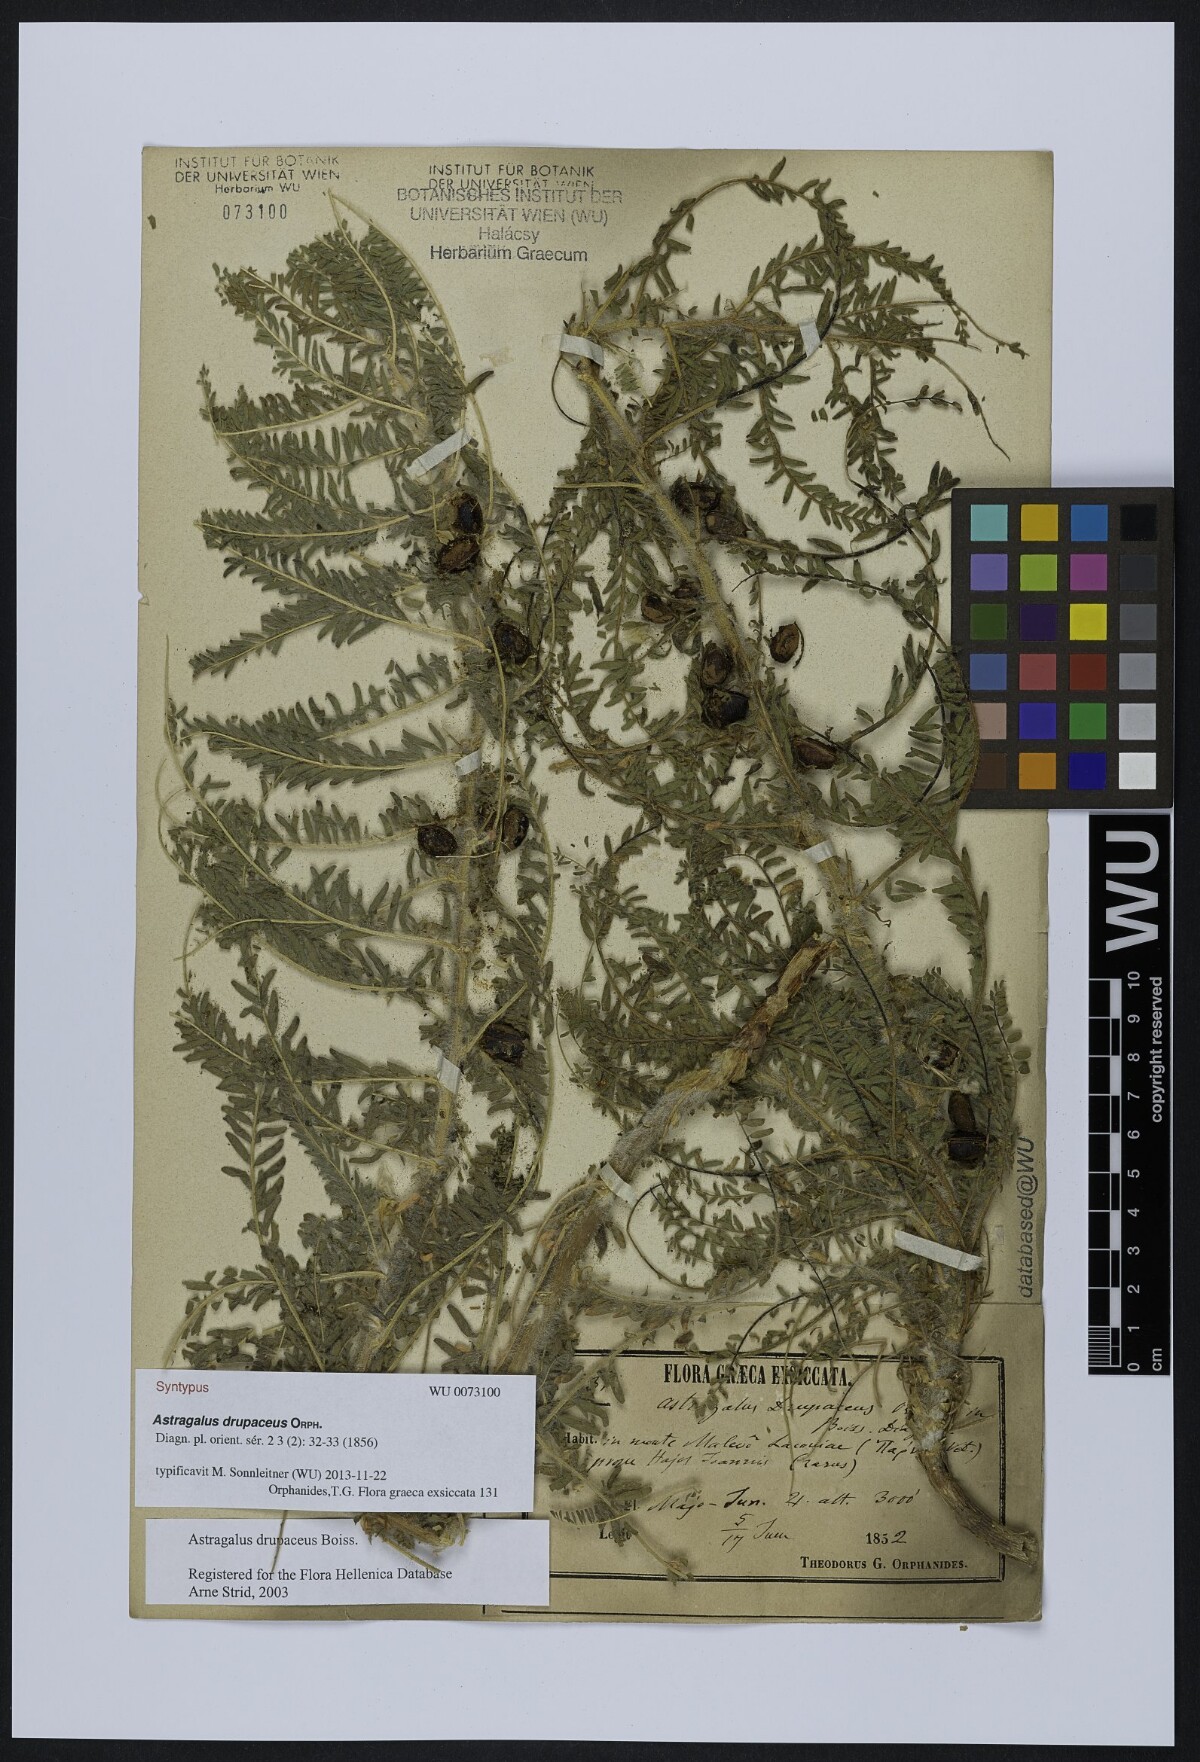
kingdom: Plantae
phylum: Tracheophyta
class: Magnoliopsida
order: Fabales
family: Fabaceae
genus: Astragalus
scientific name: Astragalus drupaceus
